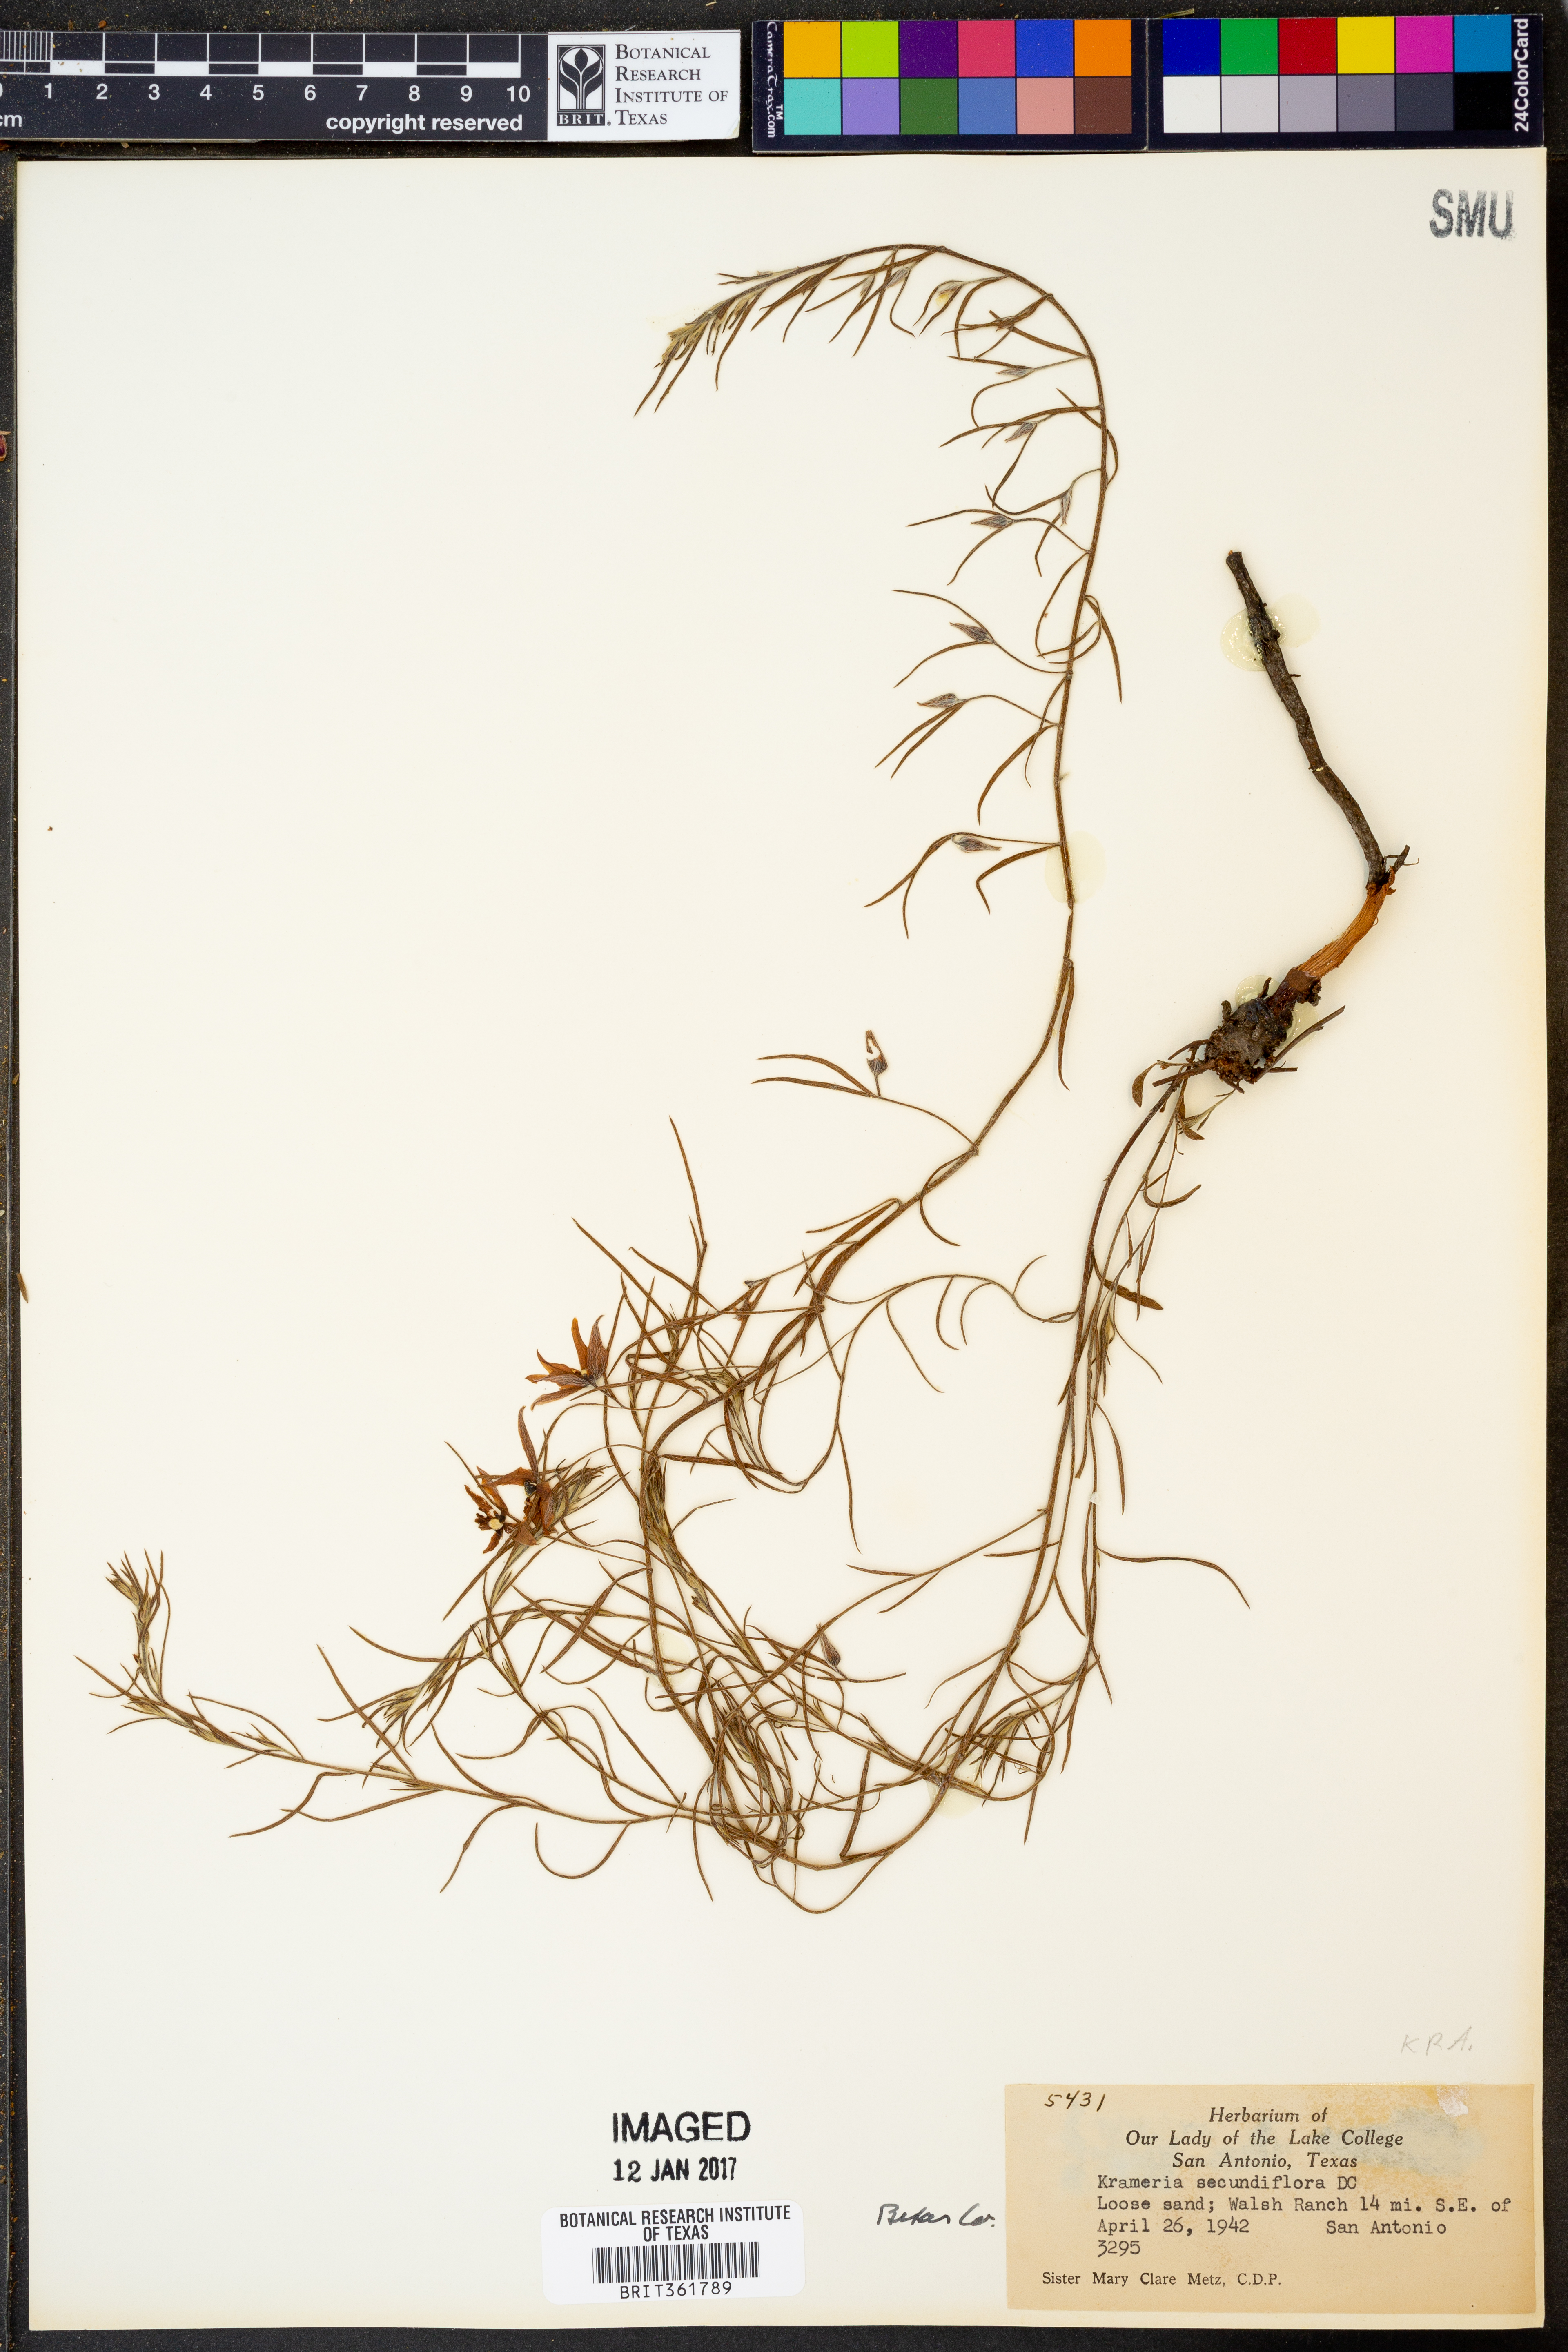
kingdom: Plantae
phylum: Tracheophyta
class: Magnoliopsida
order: Zygophyllales
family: Krameriaceae
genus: Krameria
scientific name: Krameria secundiflora
